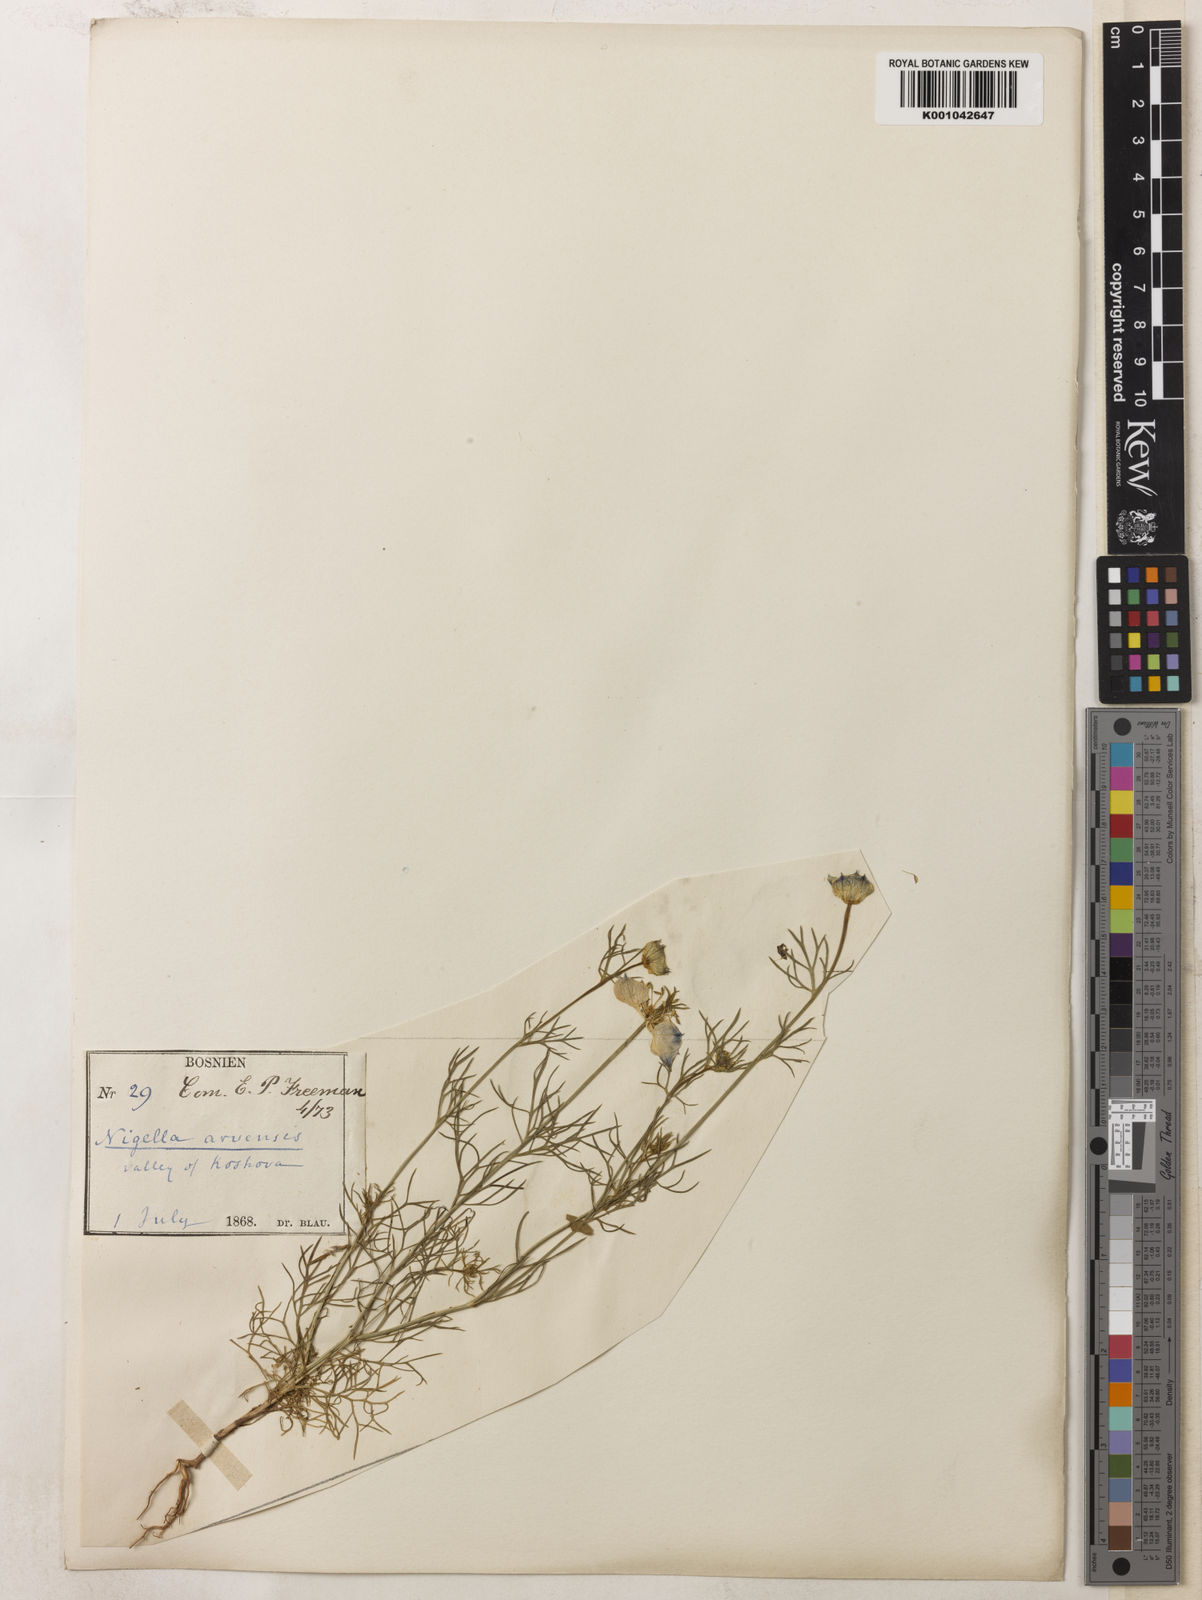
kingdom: Plantae
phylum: Tracheophyta
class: Magnoliopsida
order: Ranunculales
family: Ranunculaceae
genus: Nigella
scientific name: Nigella arvensis
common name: Wild fennel-flower
